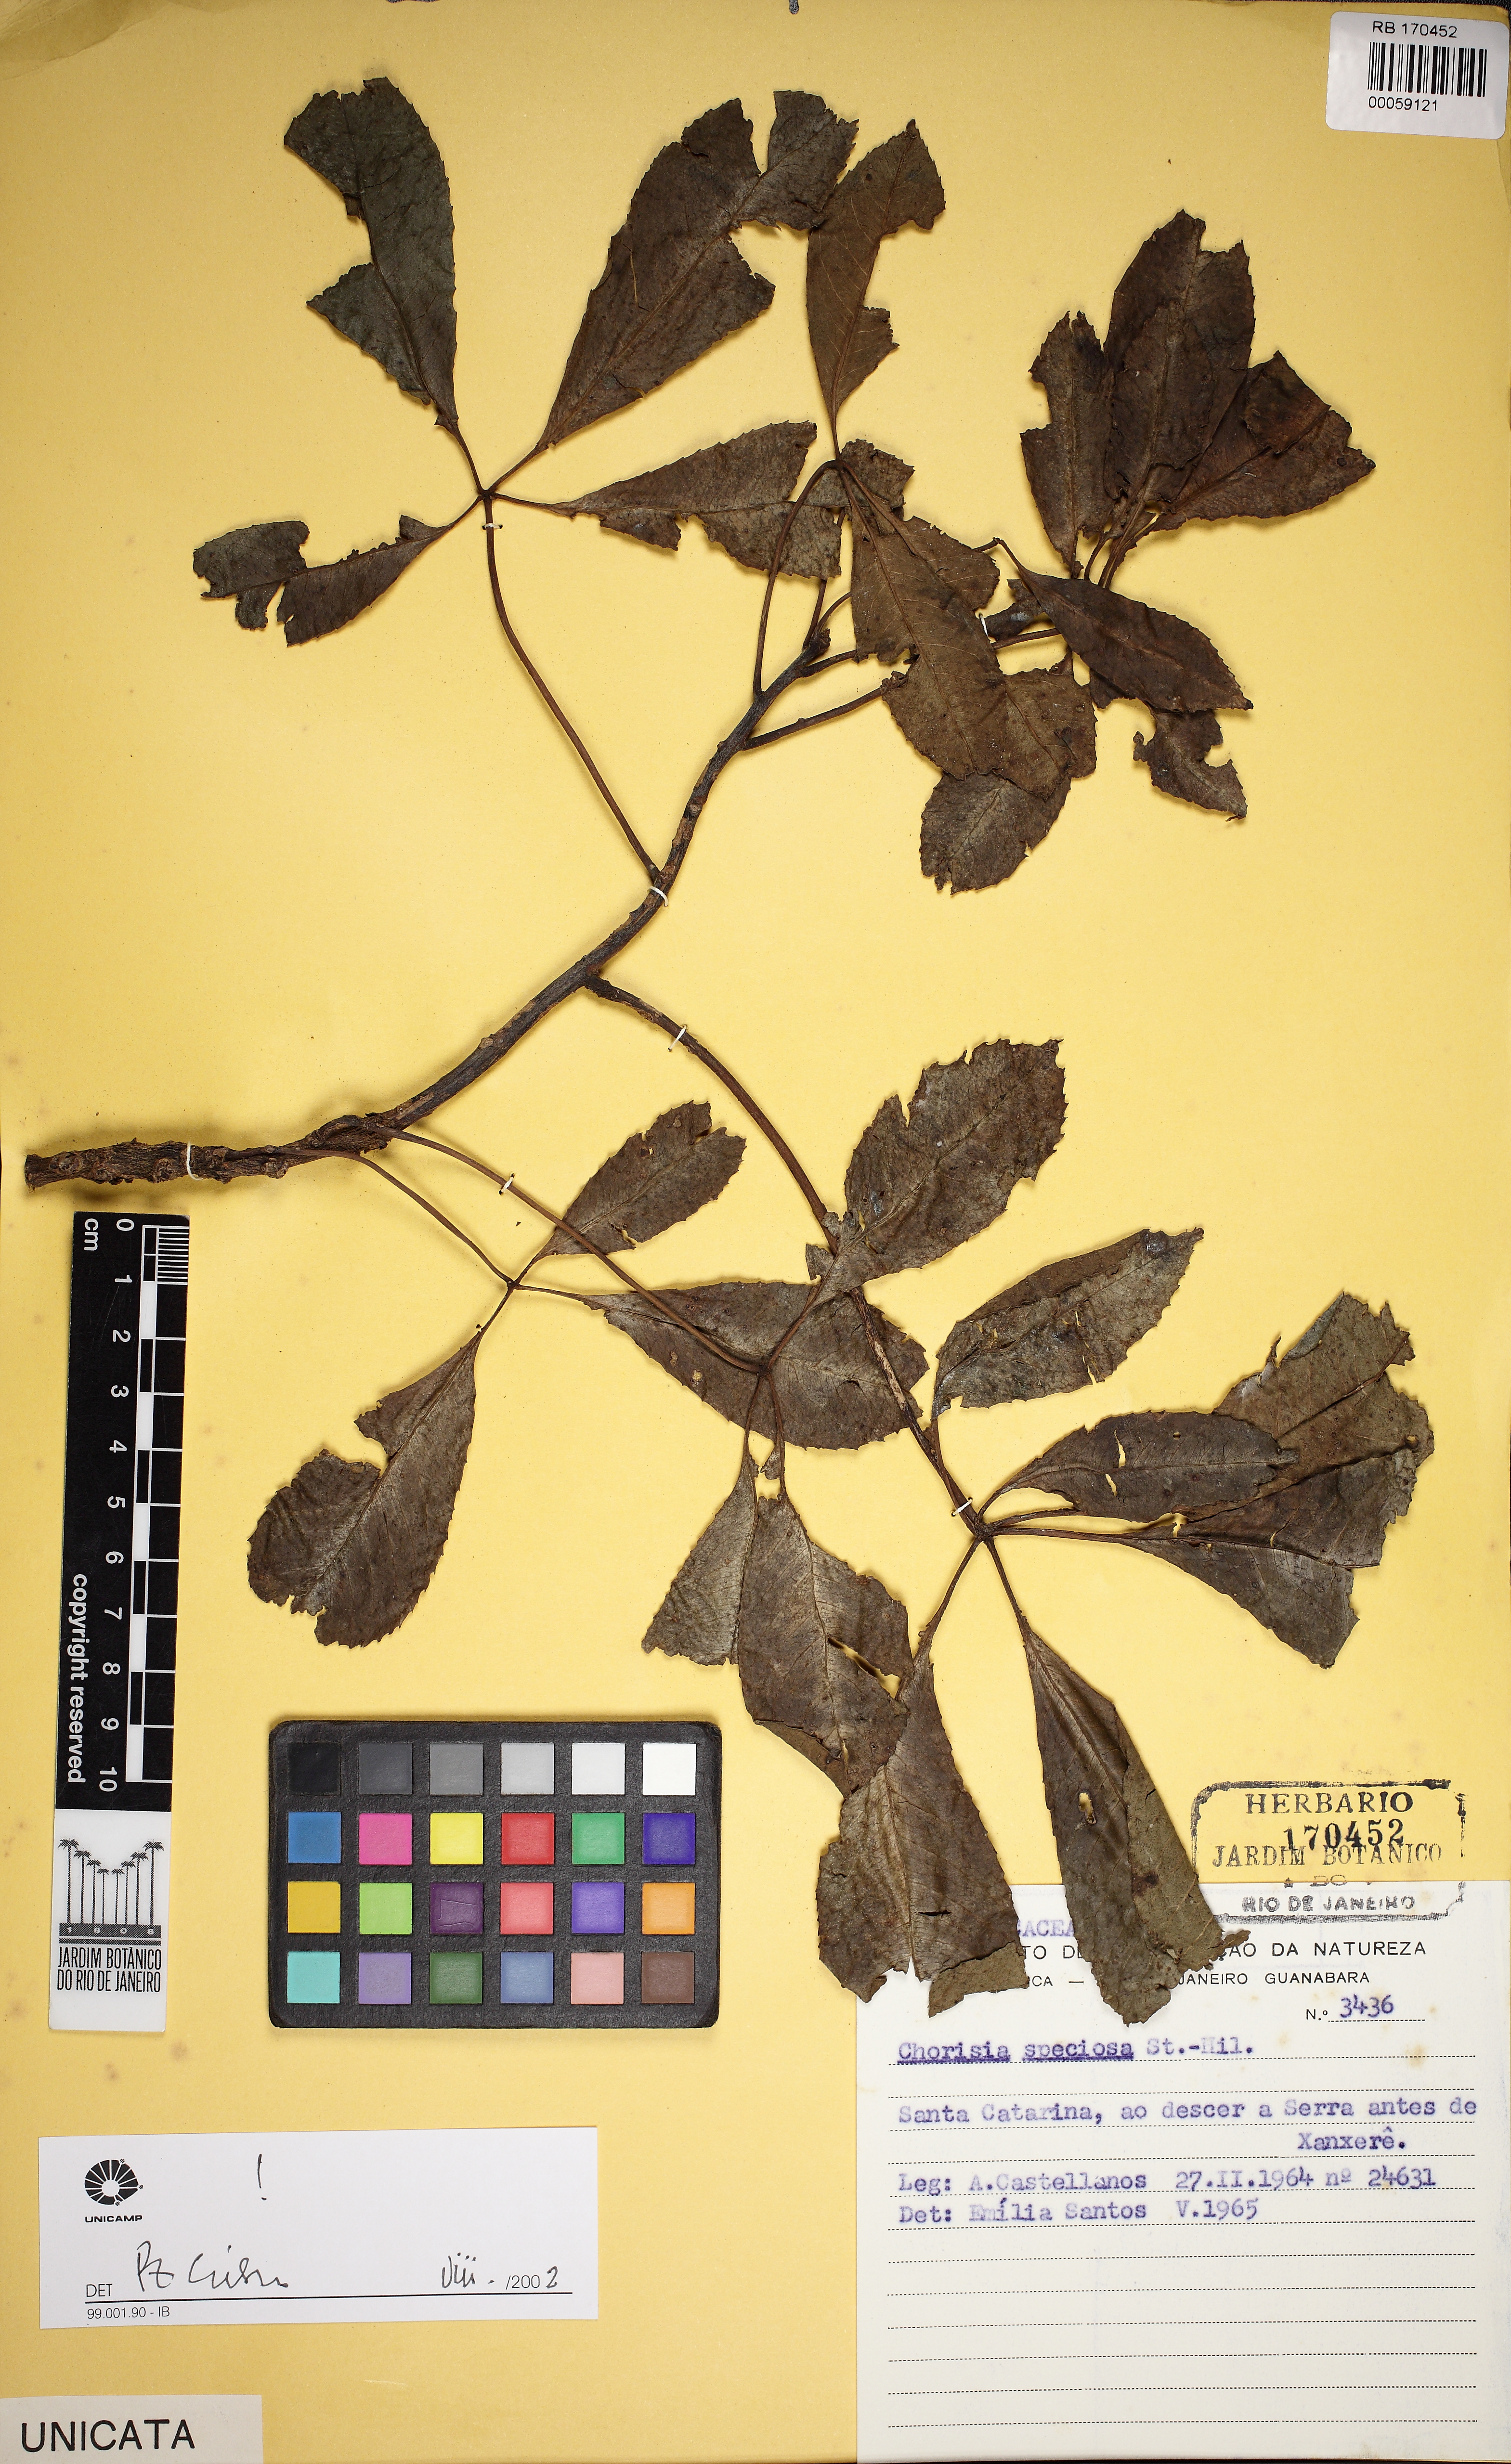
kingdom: Plantae
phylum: Tracheophyta
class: Magnoliopsida
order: Malvales
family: Malvaceae
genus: Ceiba
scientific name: Ceiba speciosa
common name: Silk-floss tree
